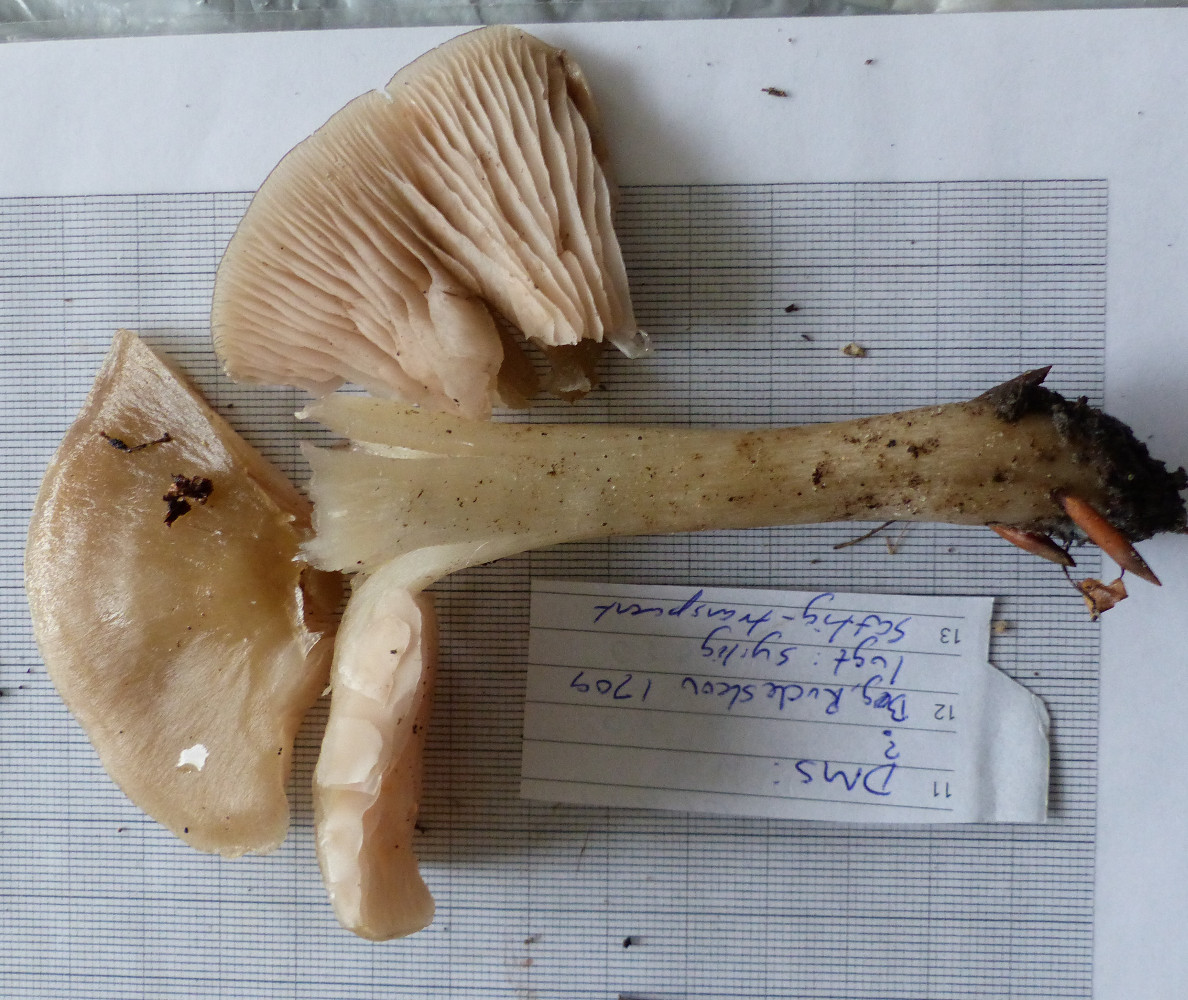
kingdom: Fungi
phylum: Basidiomycota
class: Agaricomycetes
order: Agaricales
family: Entolomataceae
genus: Entoloma
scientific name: Entoloma
